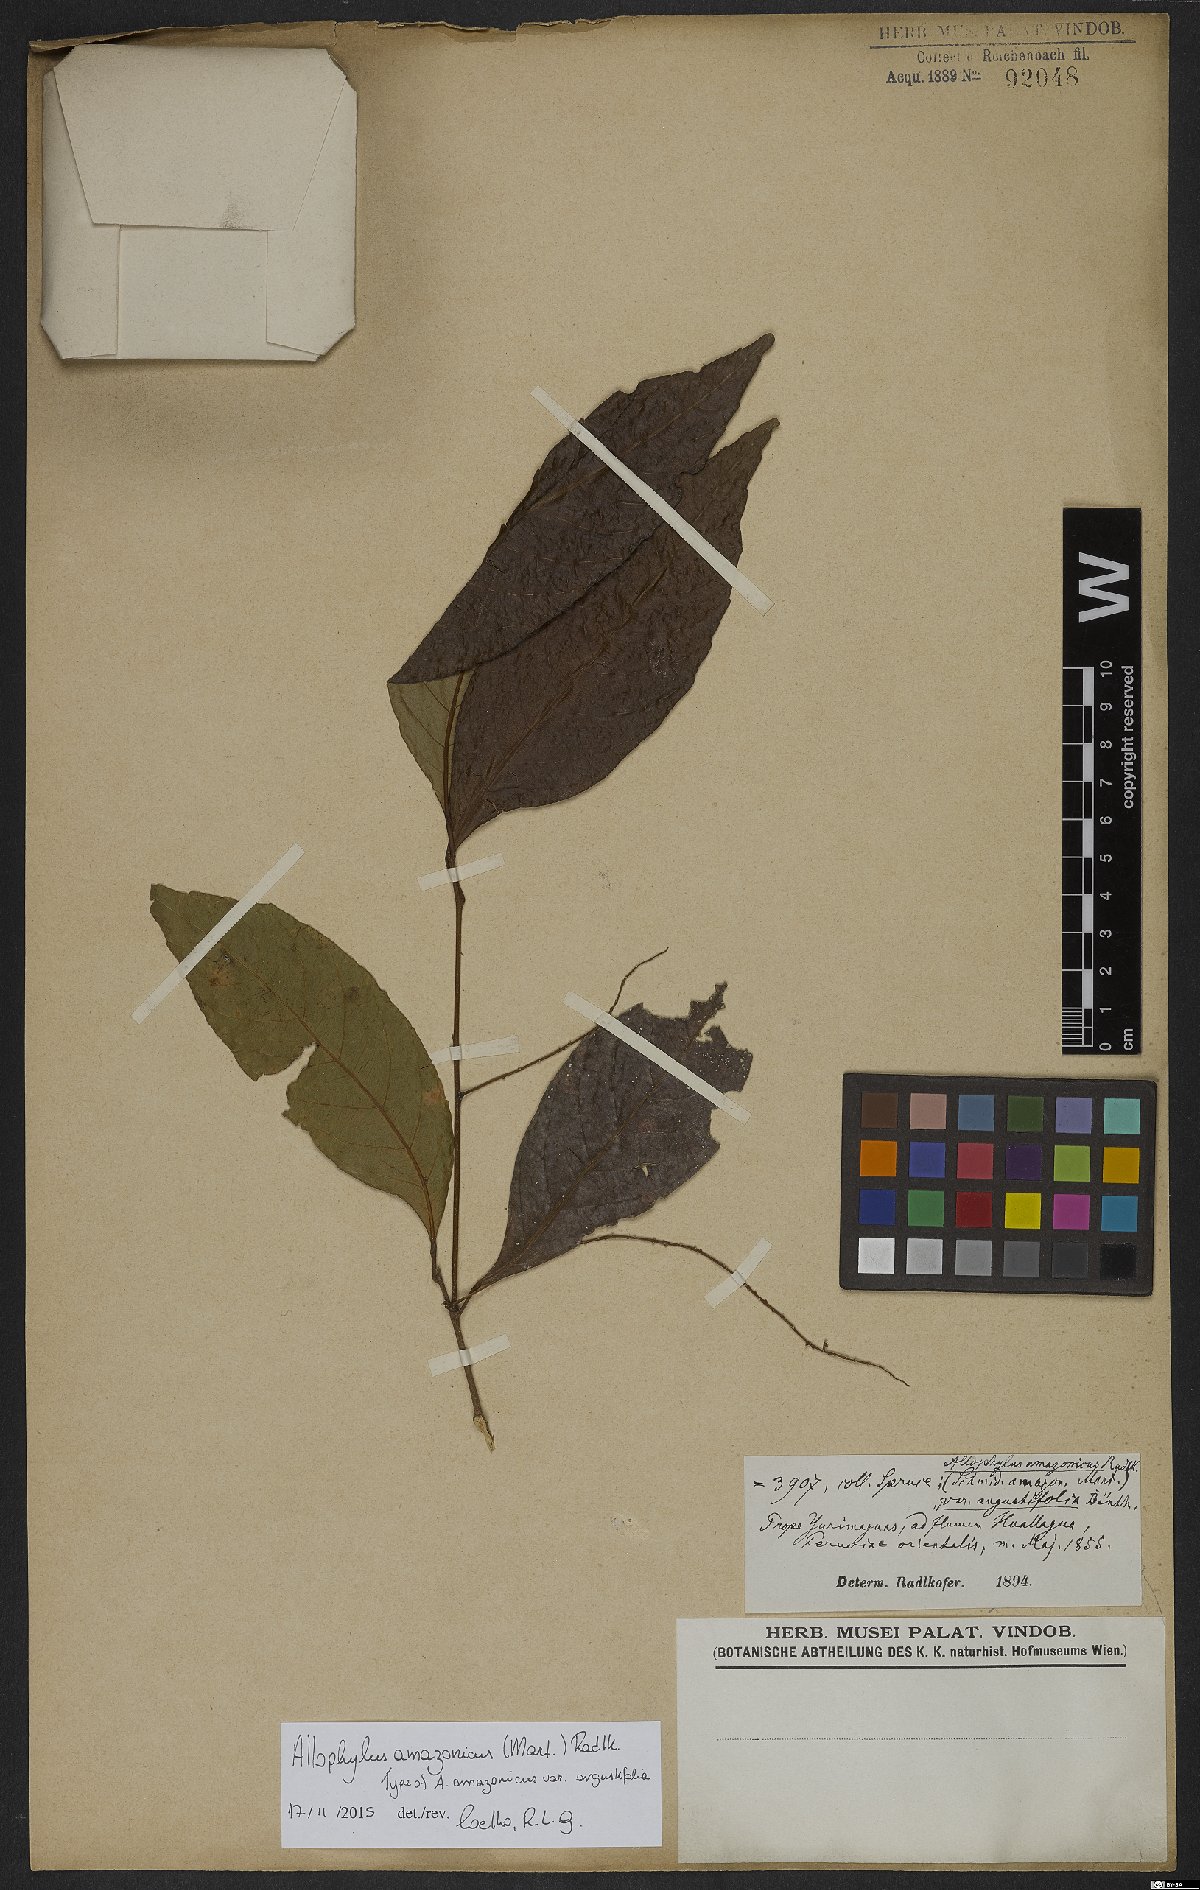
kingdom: Plantae
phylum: Tracheophyta
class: Magnoliopsida
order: Sapindales
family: Sapindaceae
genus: Allophylus
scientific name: Allophylus amazonicus
